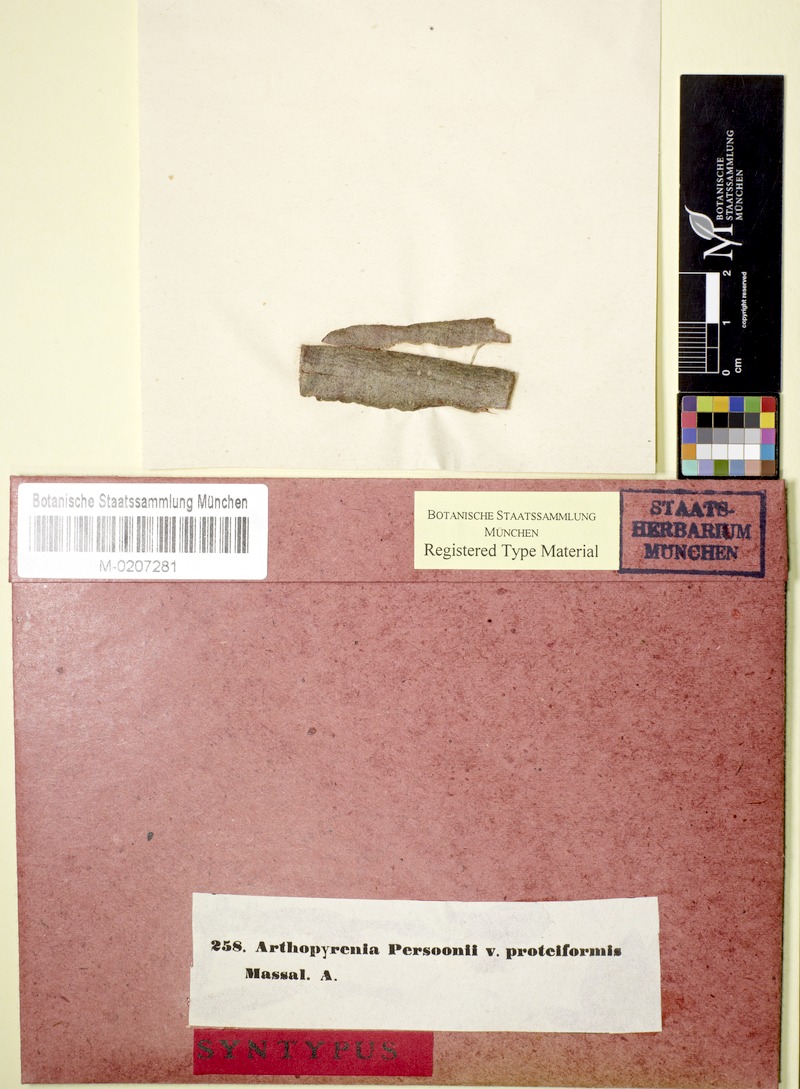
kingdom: Fungi
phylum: Ascomycota
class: Dothideomycetes
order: Pleosporales
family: Naetrocymbaceae
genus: Naetrocymbe
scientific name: Naetrocymbe punctiformis
